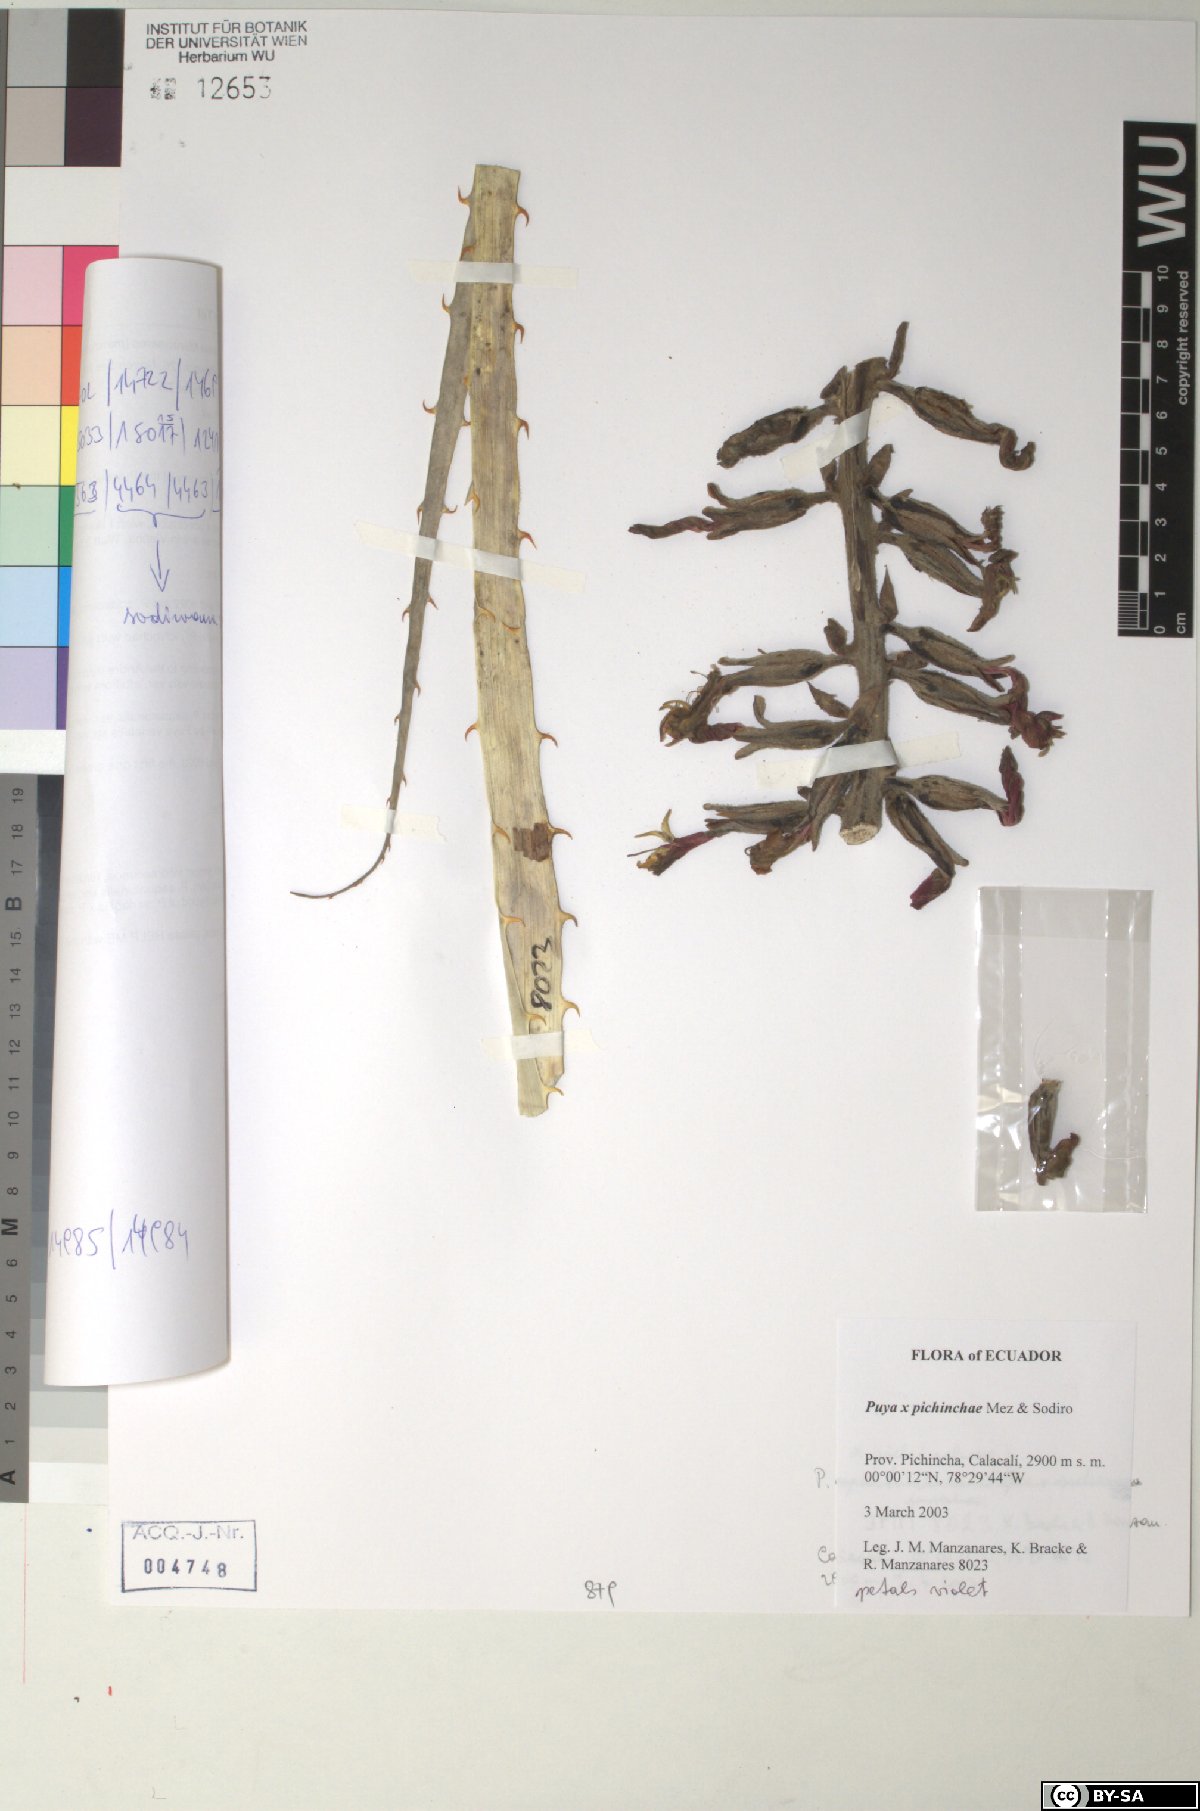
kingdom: Plantae
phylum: Tracheophyta
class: Liliopsida
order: Poales
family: Bromeliaceae
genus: Puya
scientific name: Puya pichinchae
